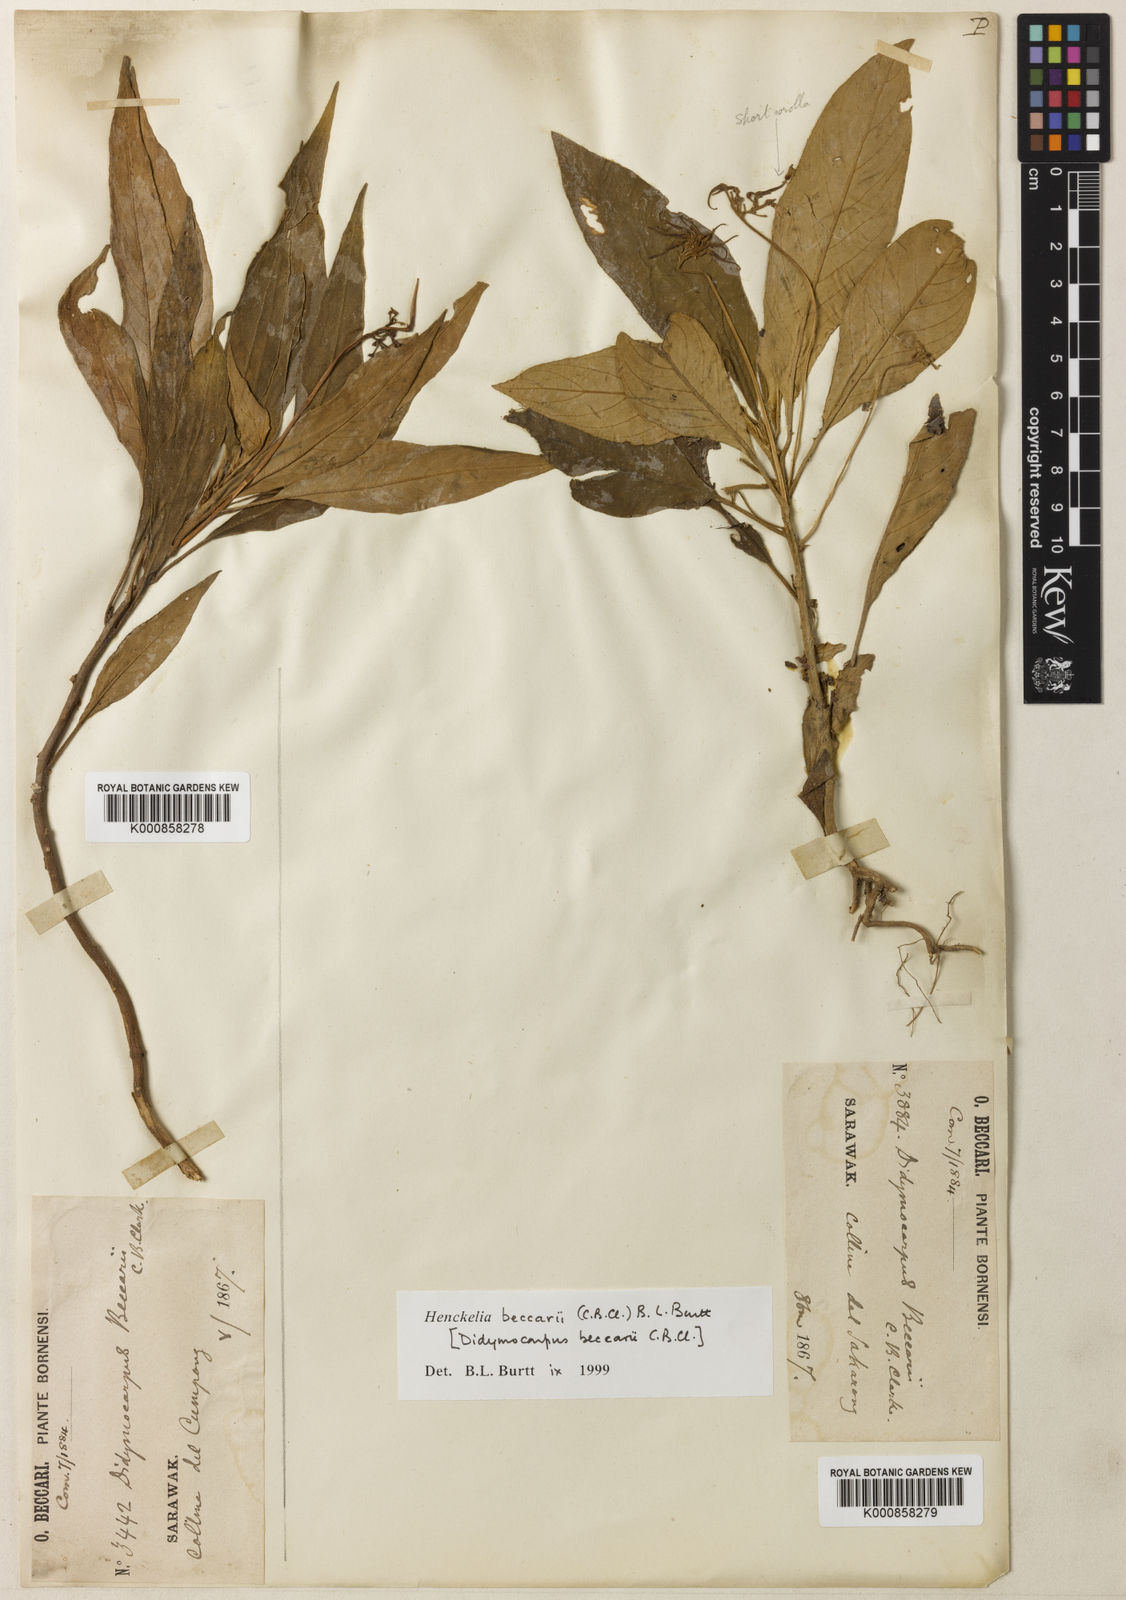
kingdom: Plantae
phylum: Tracheophyta
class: Magnoliopsida
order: Lamiales
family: Gesneriaceae
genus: Codonoboea
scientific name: Codonoboea beccarii
